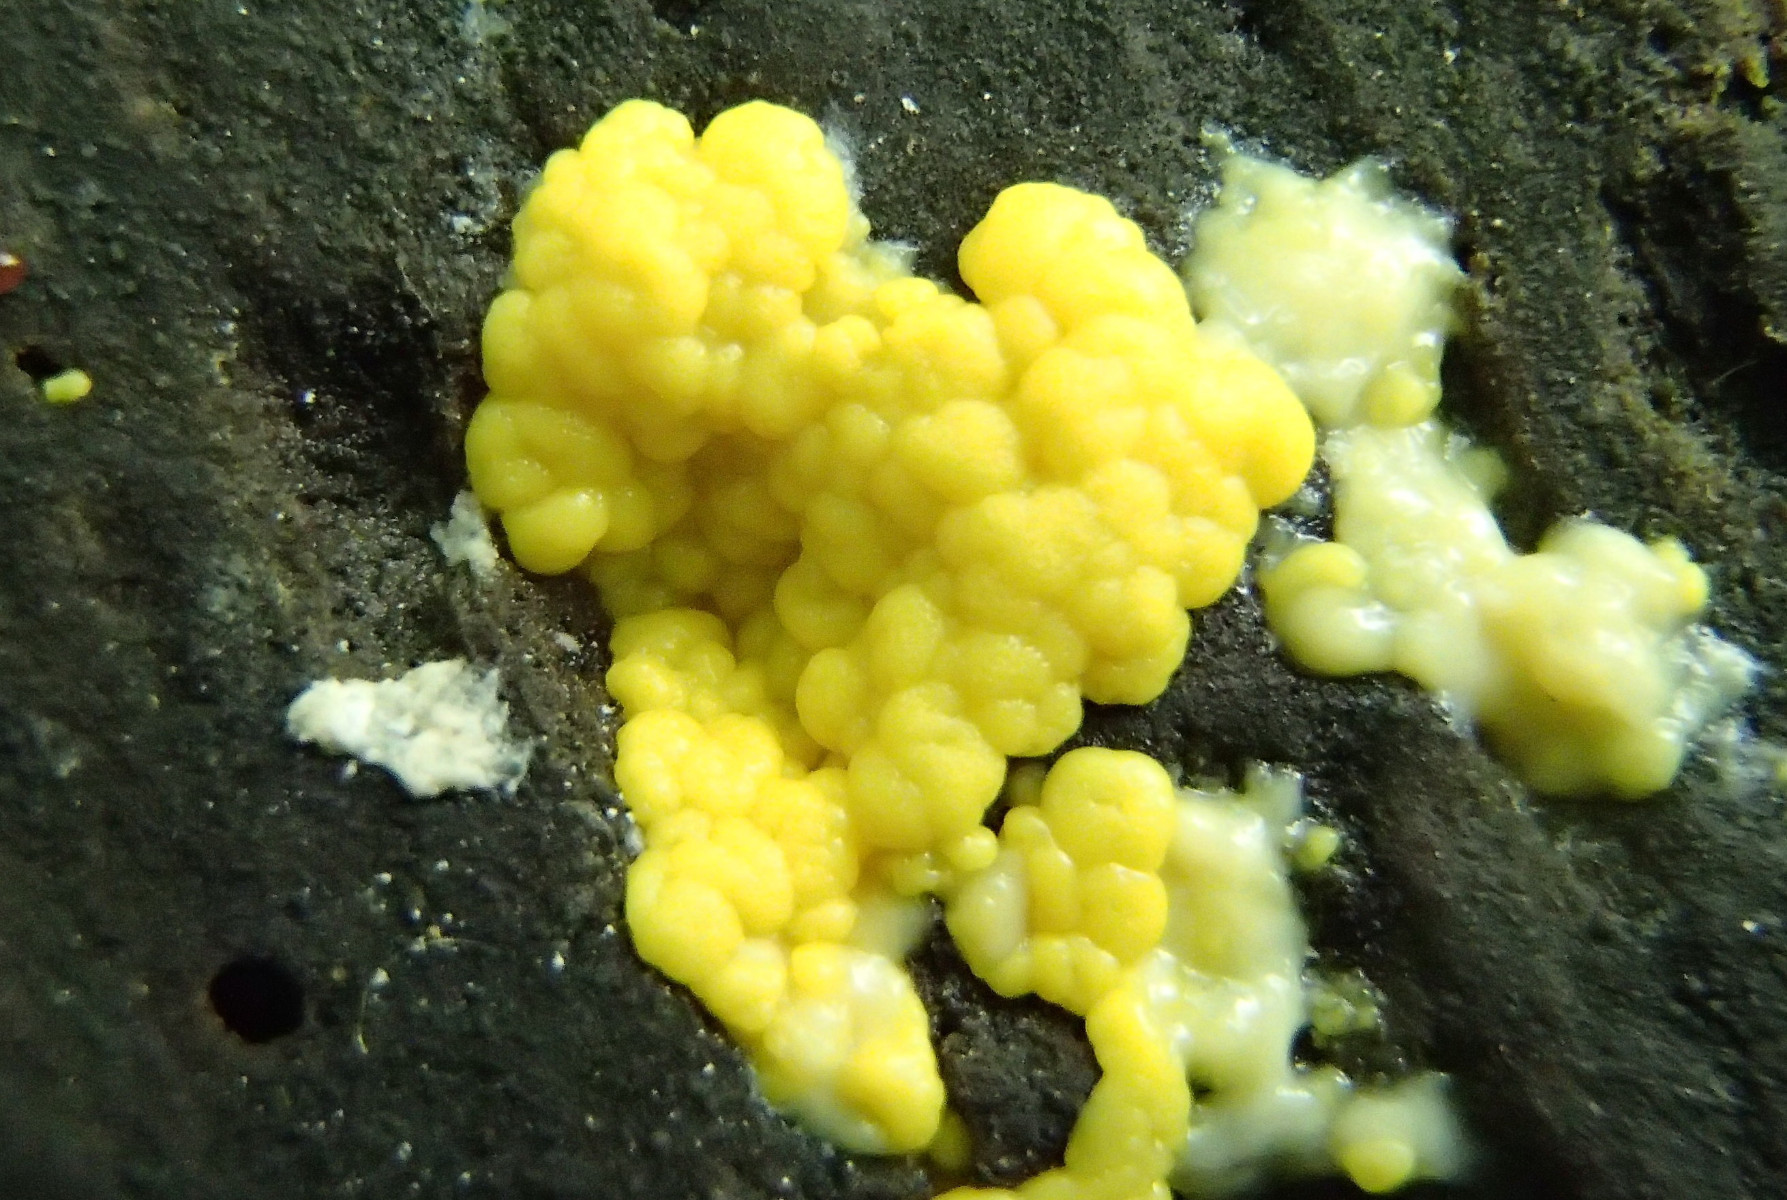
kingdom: Protozoa
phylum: Mycetozoa
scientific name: Mycetozoa
